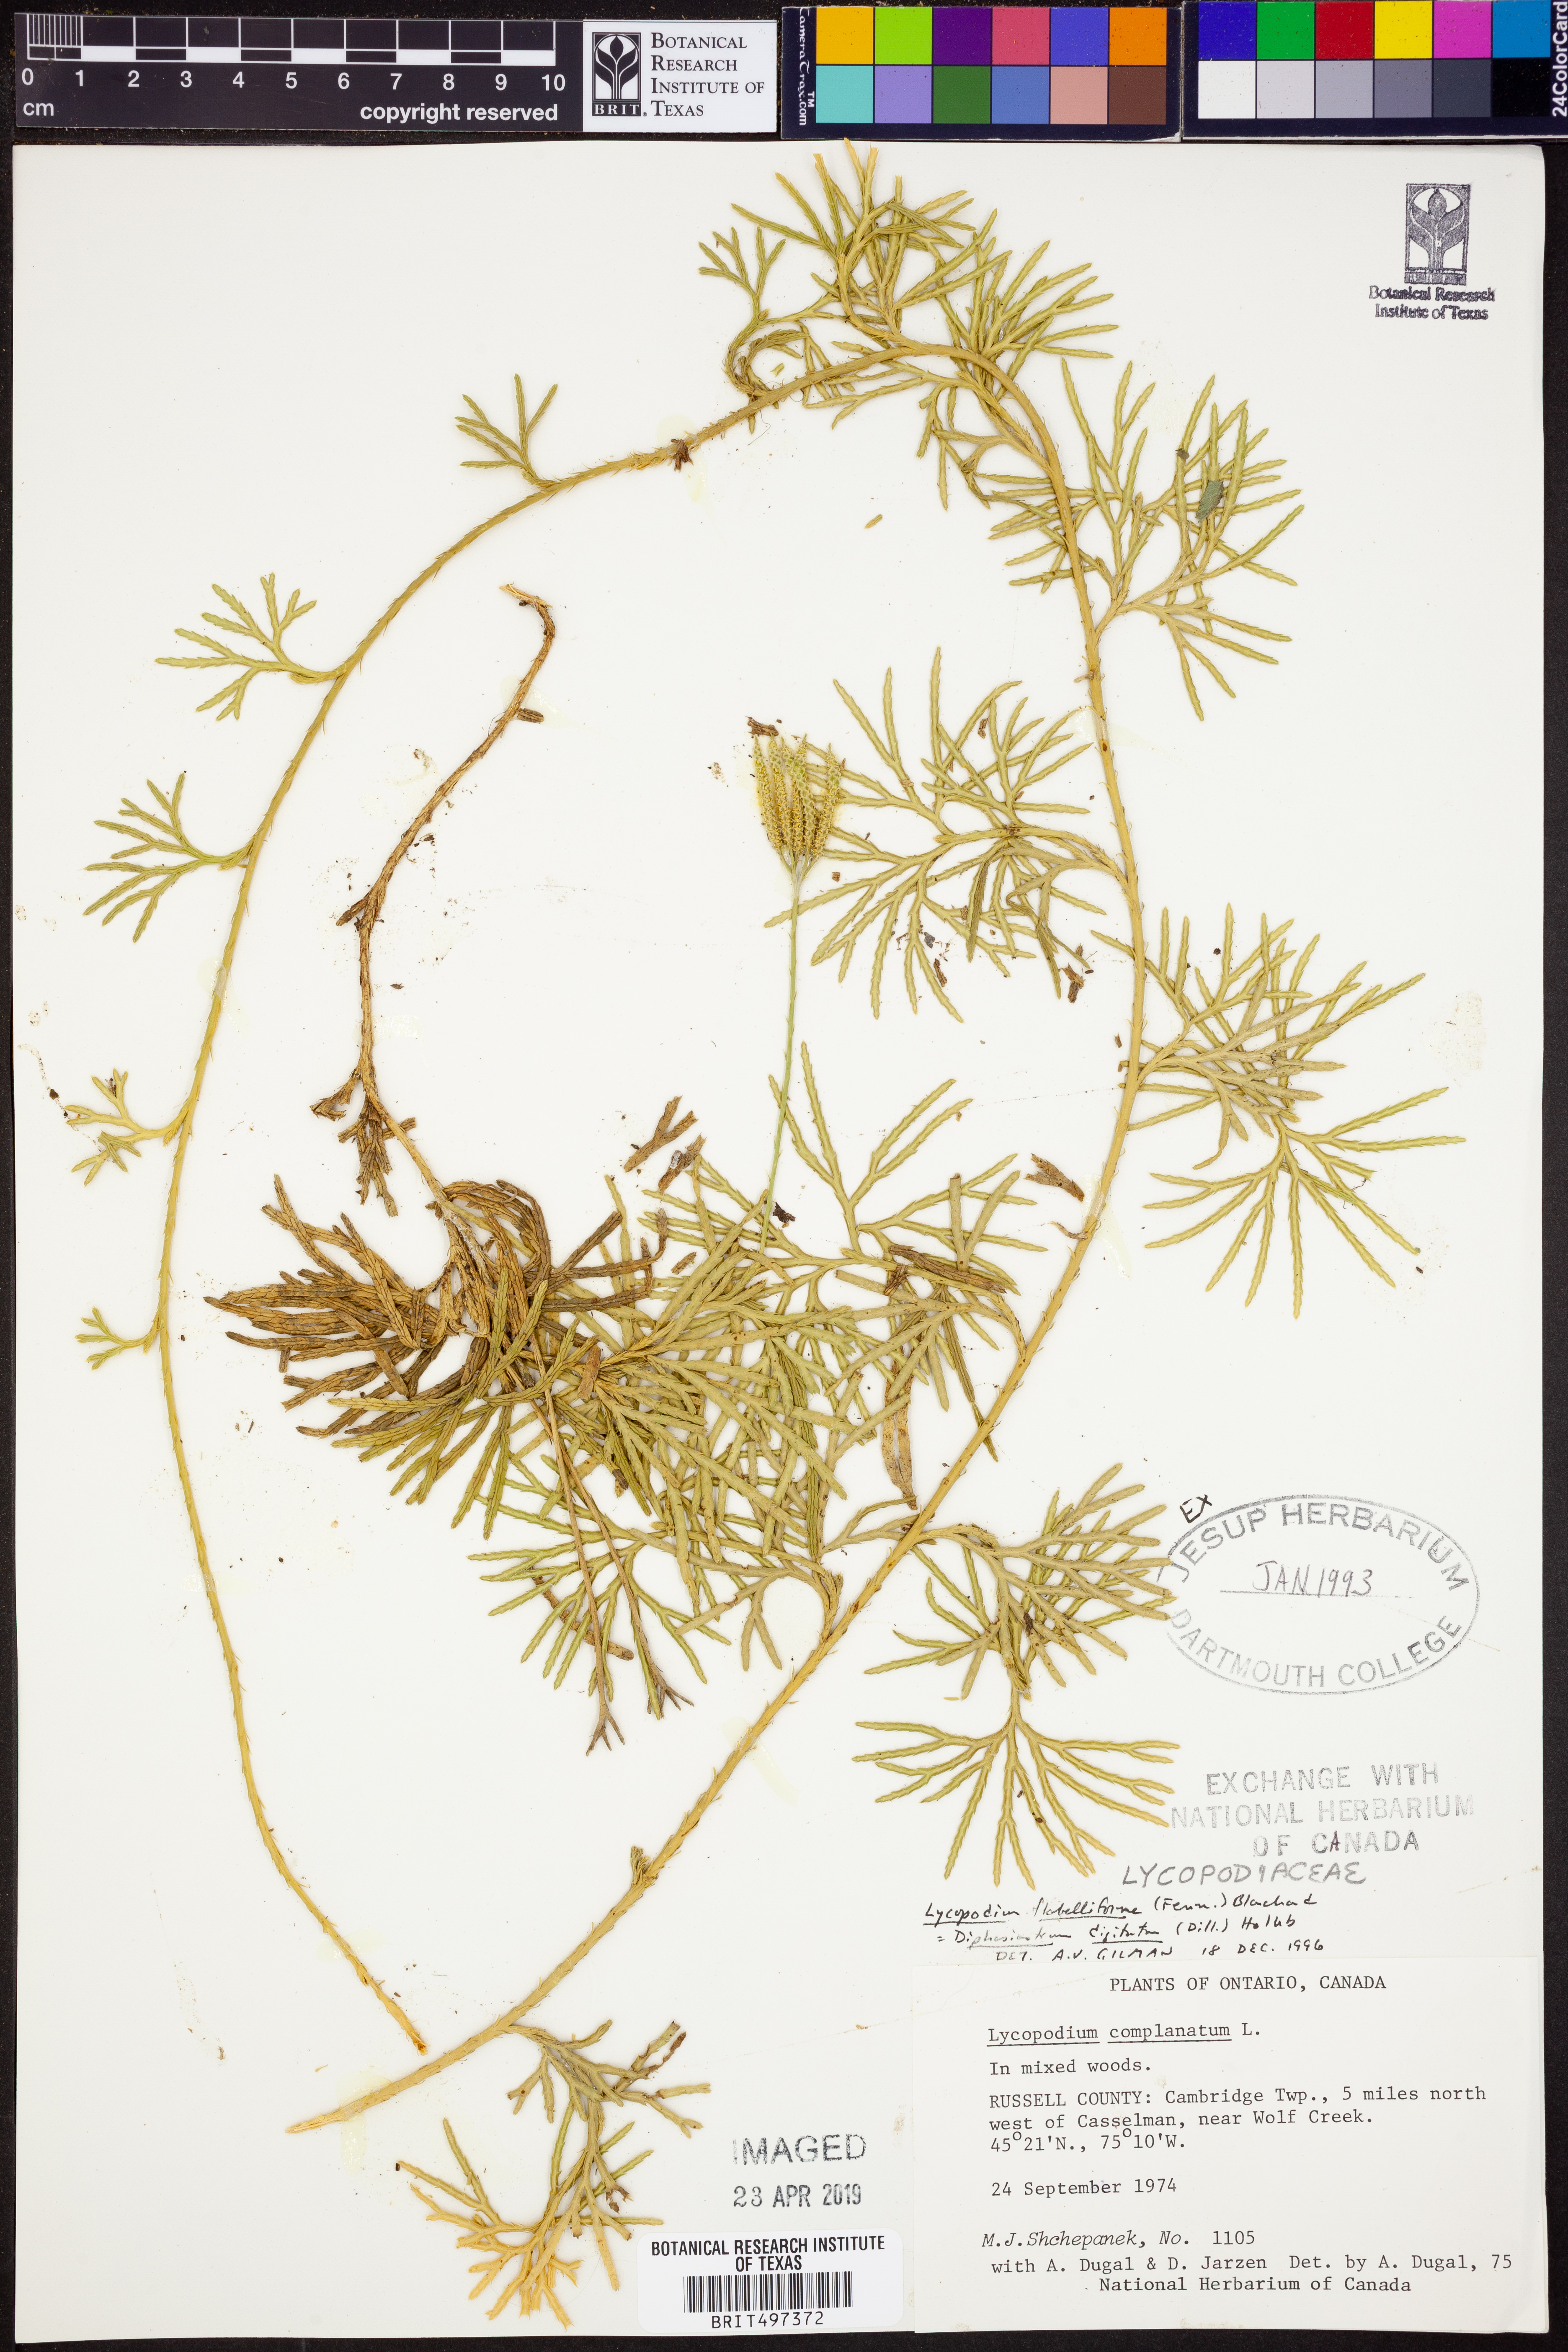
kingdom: Plantae
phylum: Tracheophyta
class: Lycopodiopsida
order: Lycopodiales
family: Lycopodiaceae
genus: Diphasiastrum
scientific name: Diphasiastrum digitatum
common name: Southern running-pine
